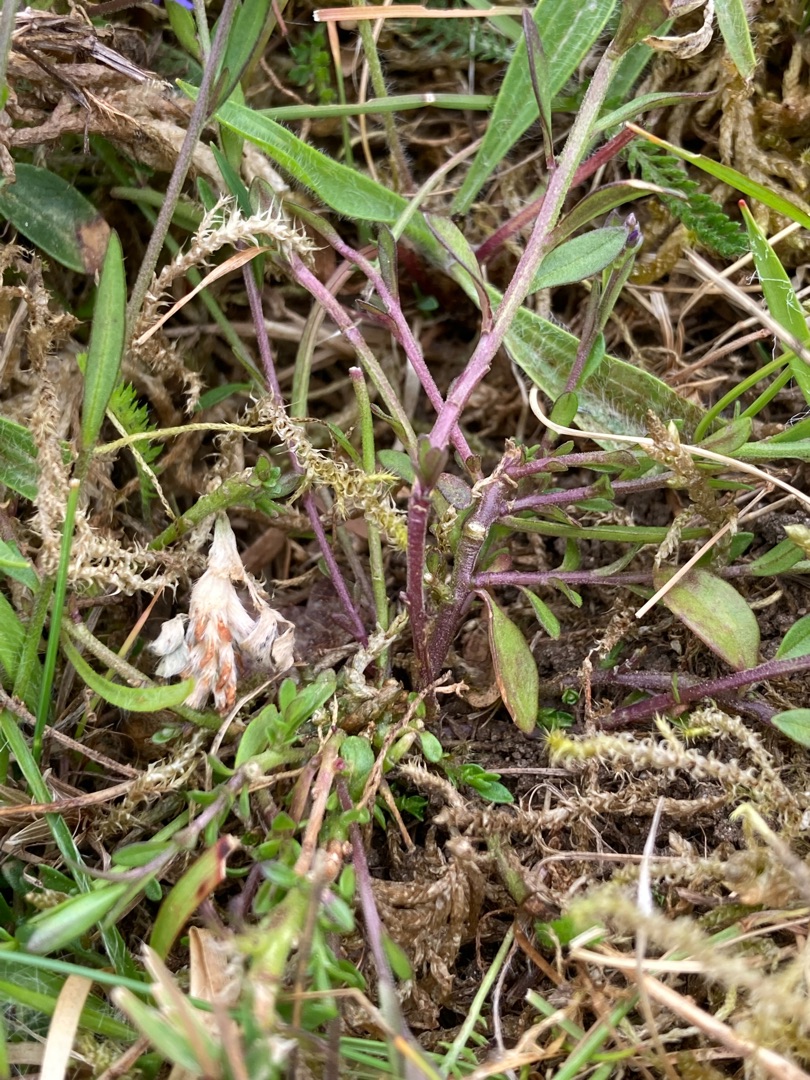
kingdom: Plantae
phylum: Tracheophyta
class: Magnoliopsida
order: Fabales
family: Polygalaceae
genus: Polygala
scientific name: Polygala vulgaris
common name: Almindelig mælkeurt
